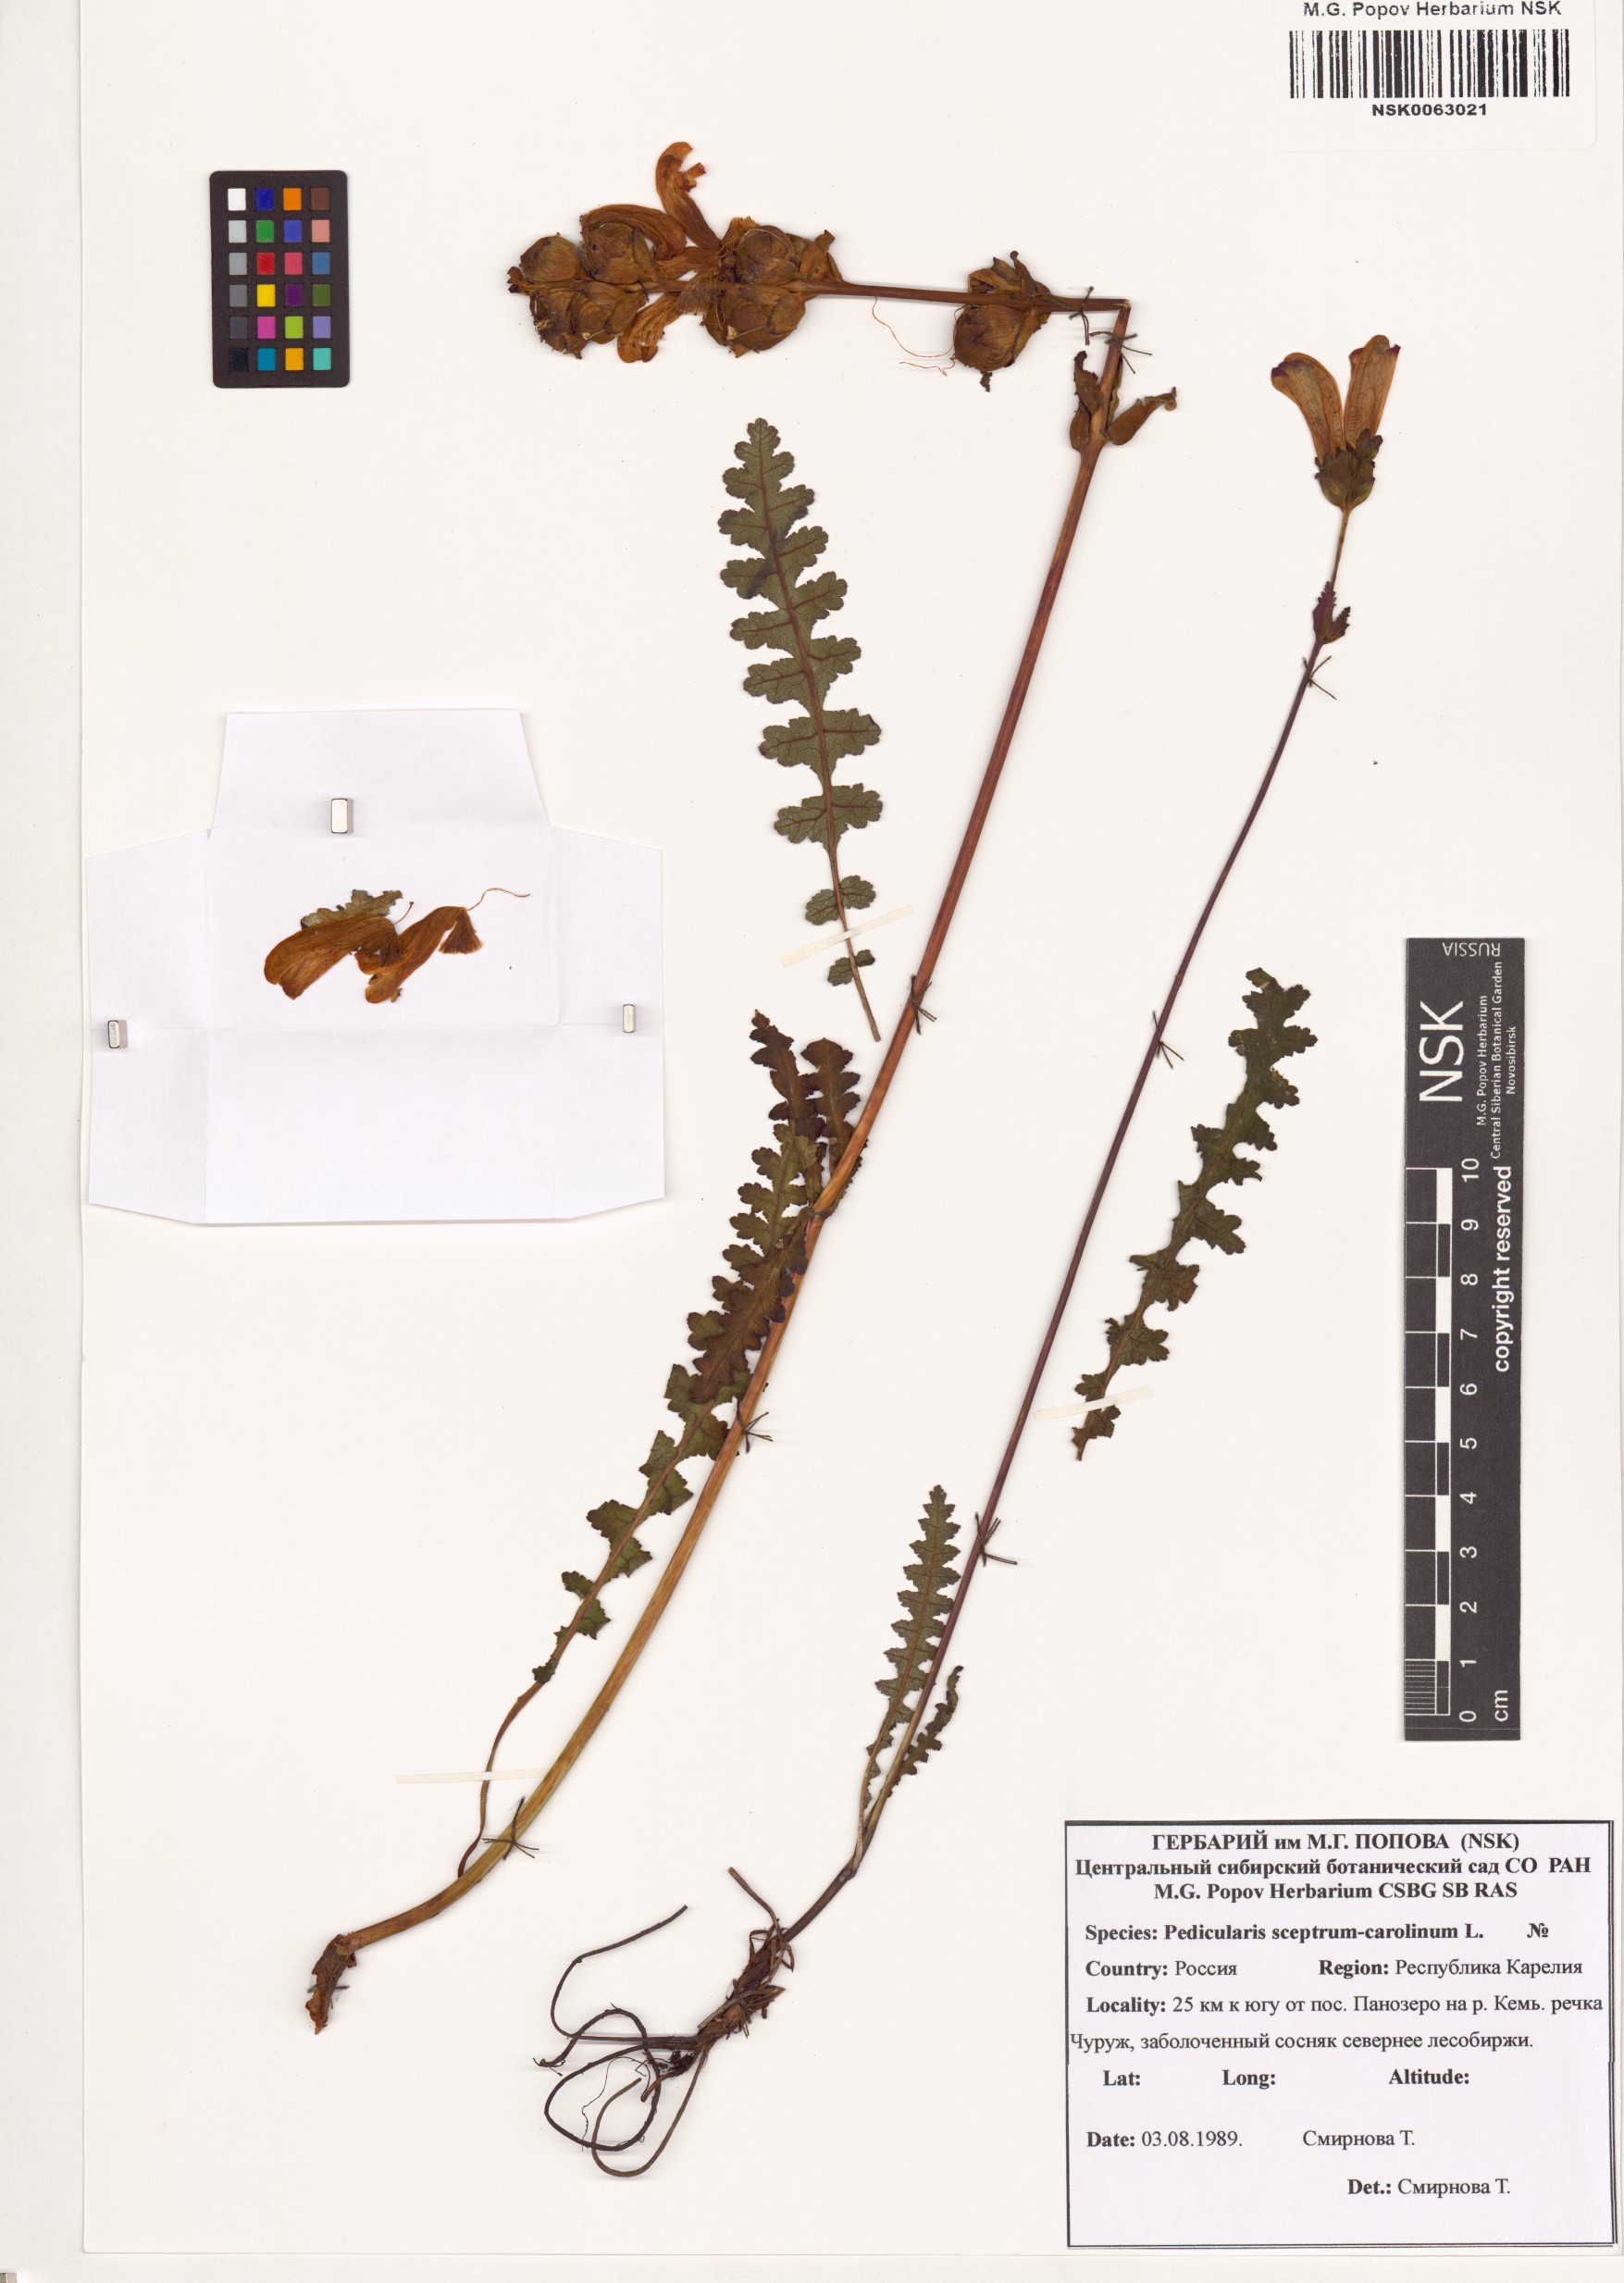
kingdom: Plantae
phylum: Tracheophyta
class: Magnoliopsida
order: Lamiales
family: Orobanchaceae
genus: Pedicularis
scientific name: Pedicularis sceptrum-carolinum
